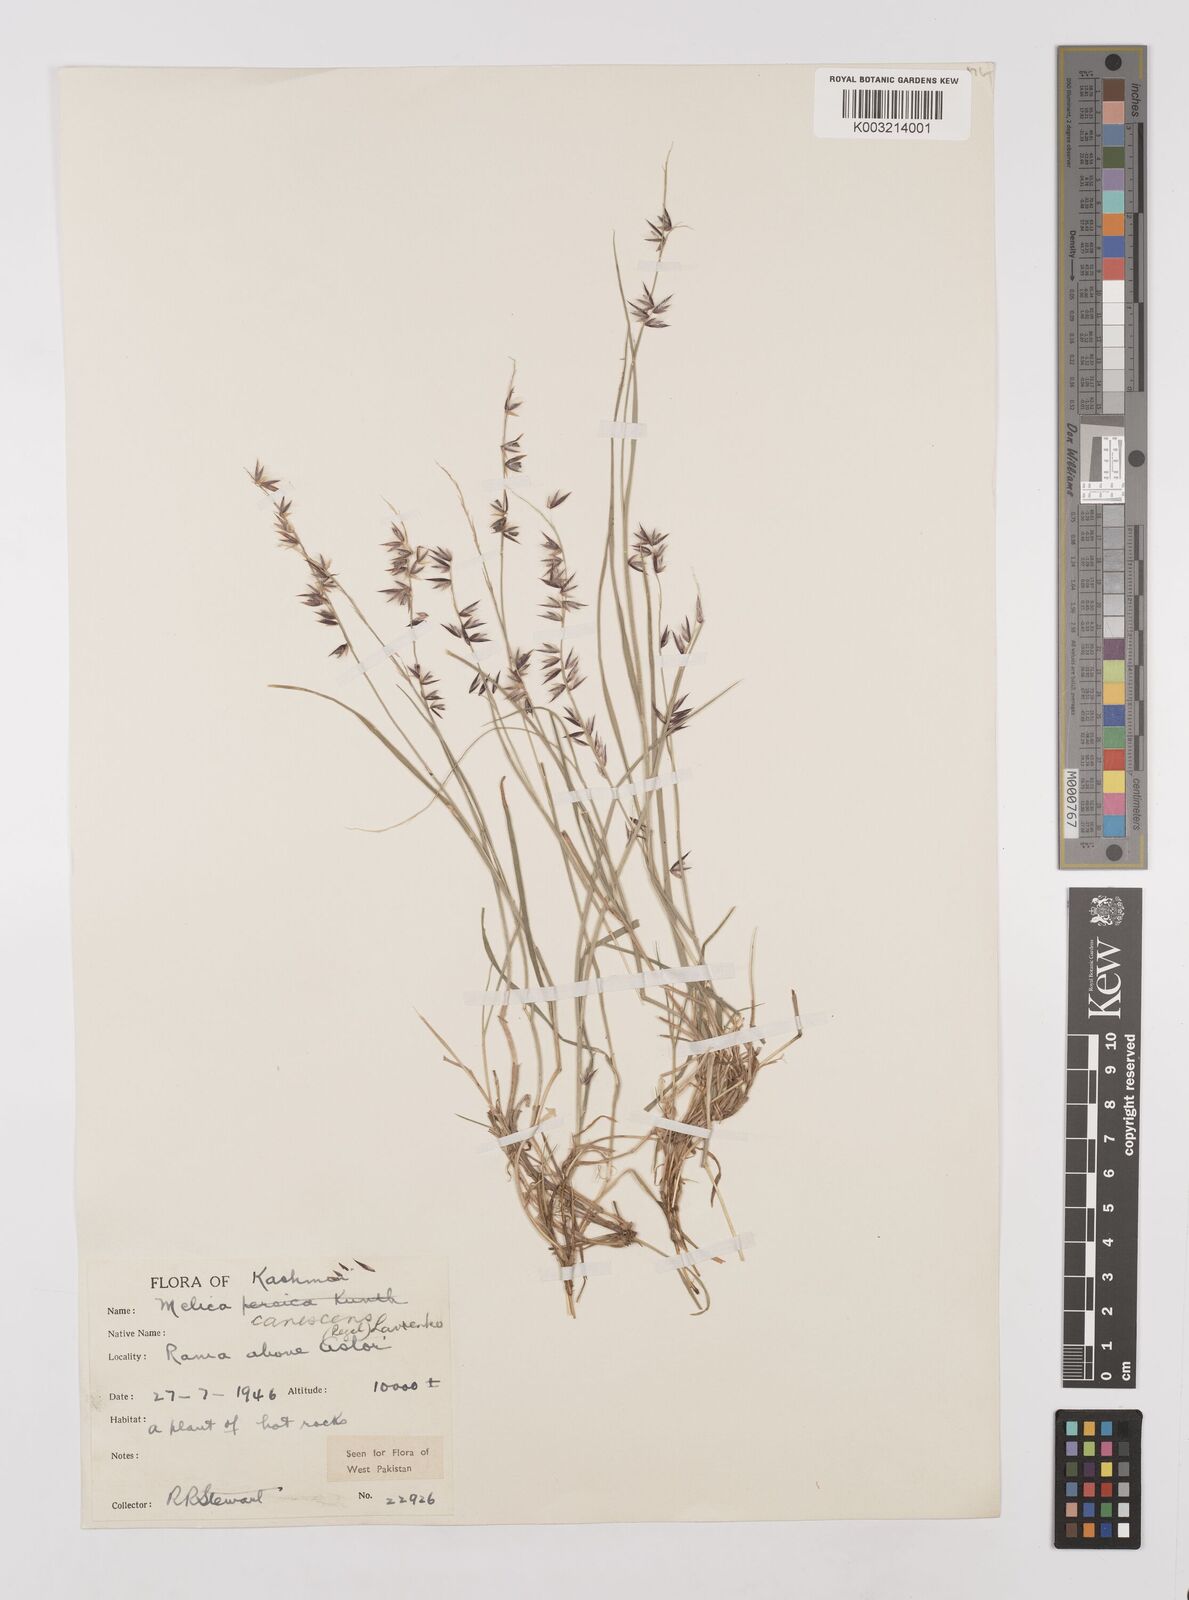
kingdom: Plantae
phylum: Tracheophyta
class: Liliopsida
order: Poales
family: Poaceae
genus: Melica
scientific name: Melica persica
